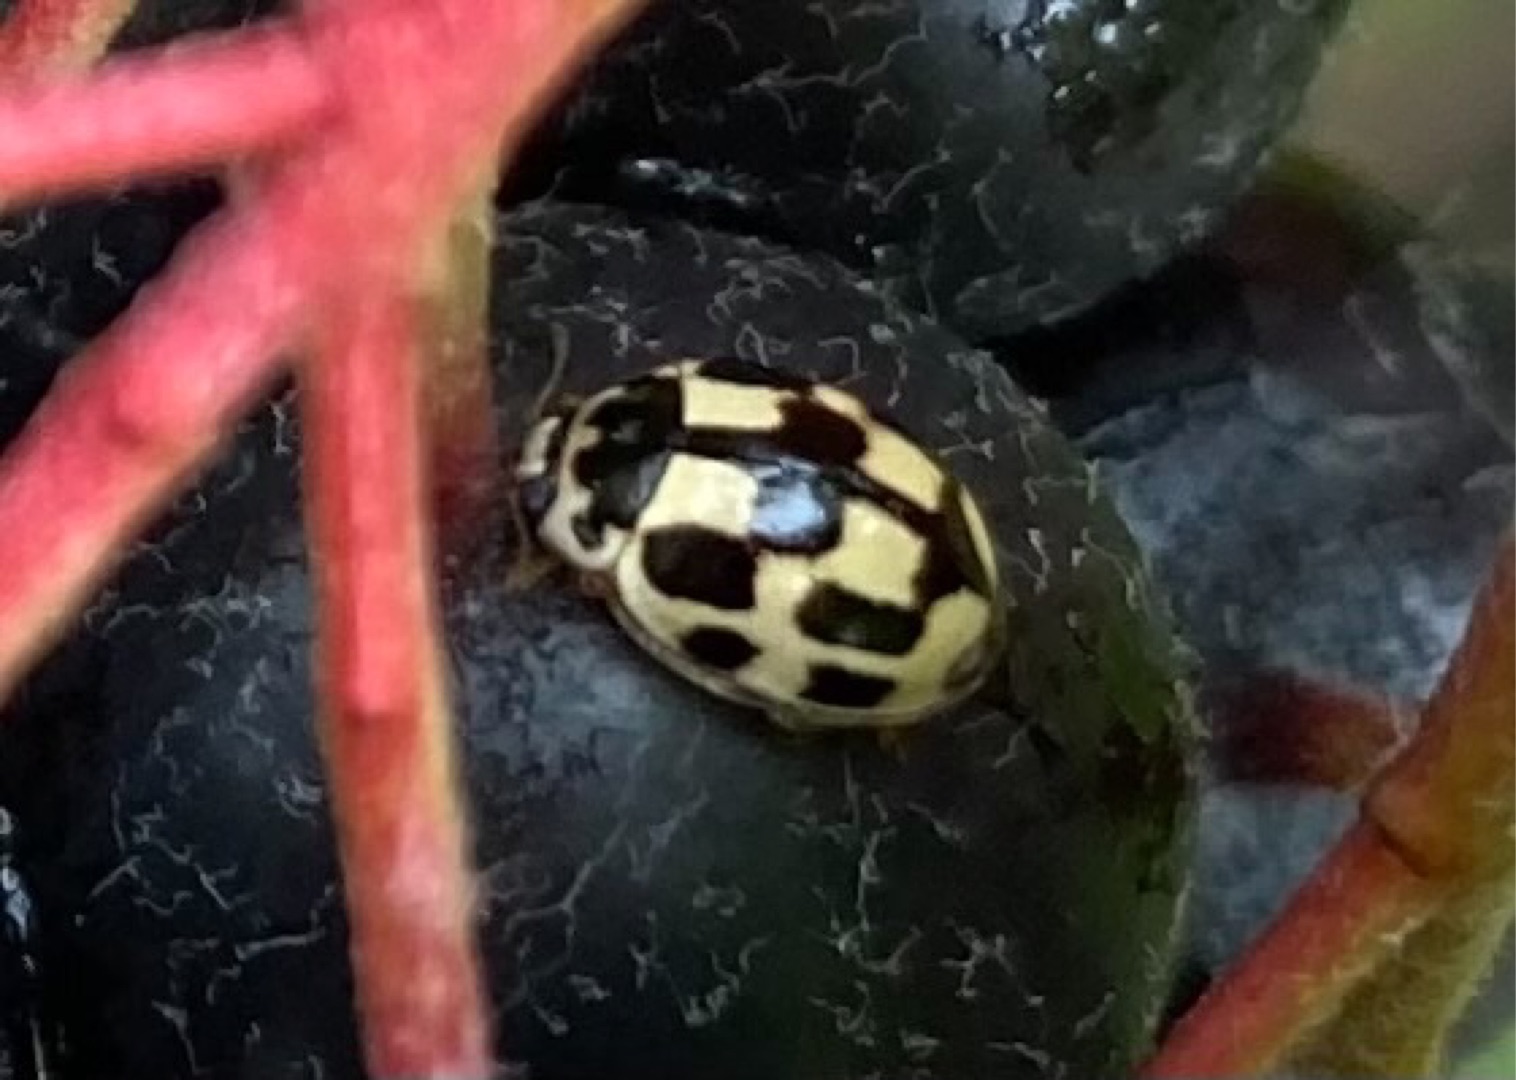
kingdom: Animalia
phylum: Arthropoda
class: Insecta
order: Coleoptera
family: Coccinellidae
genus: Propylaea
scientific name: Propylaea quatuordecimpunctata
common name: Skakbræt
